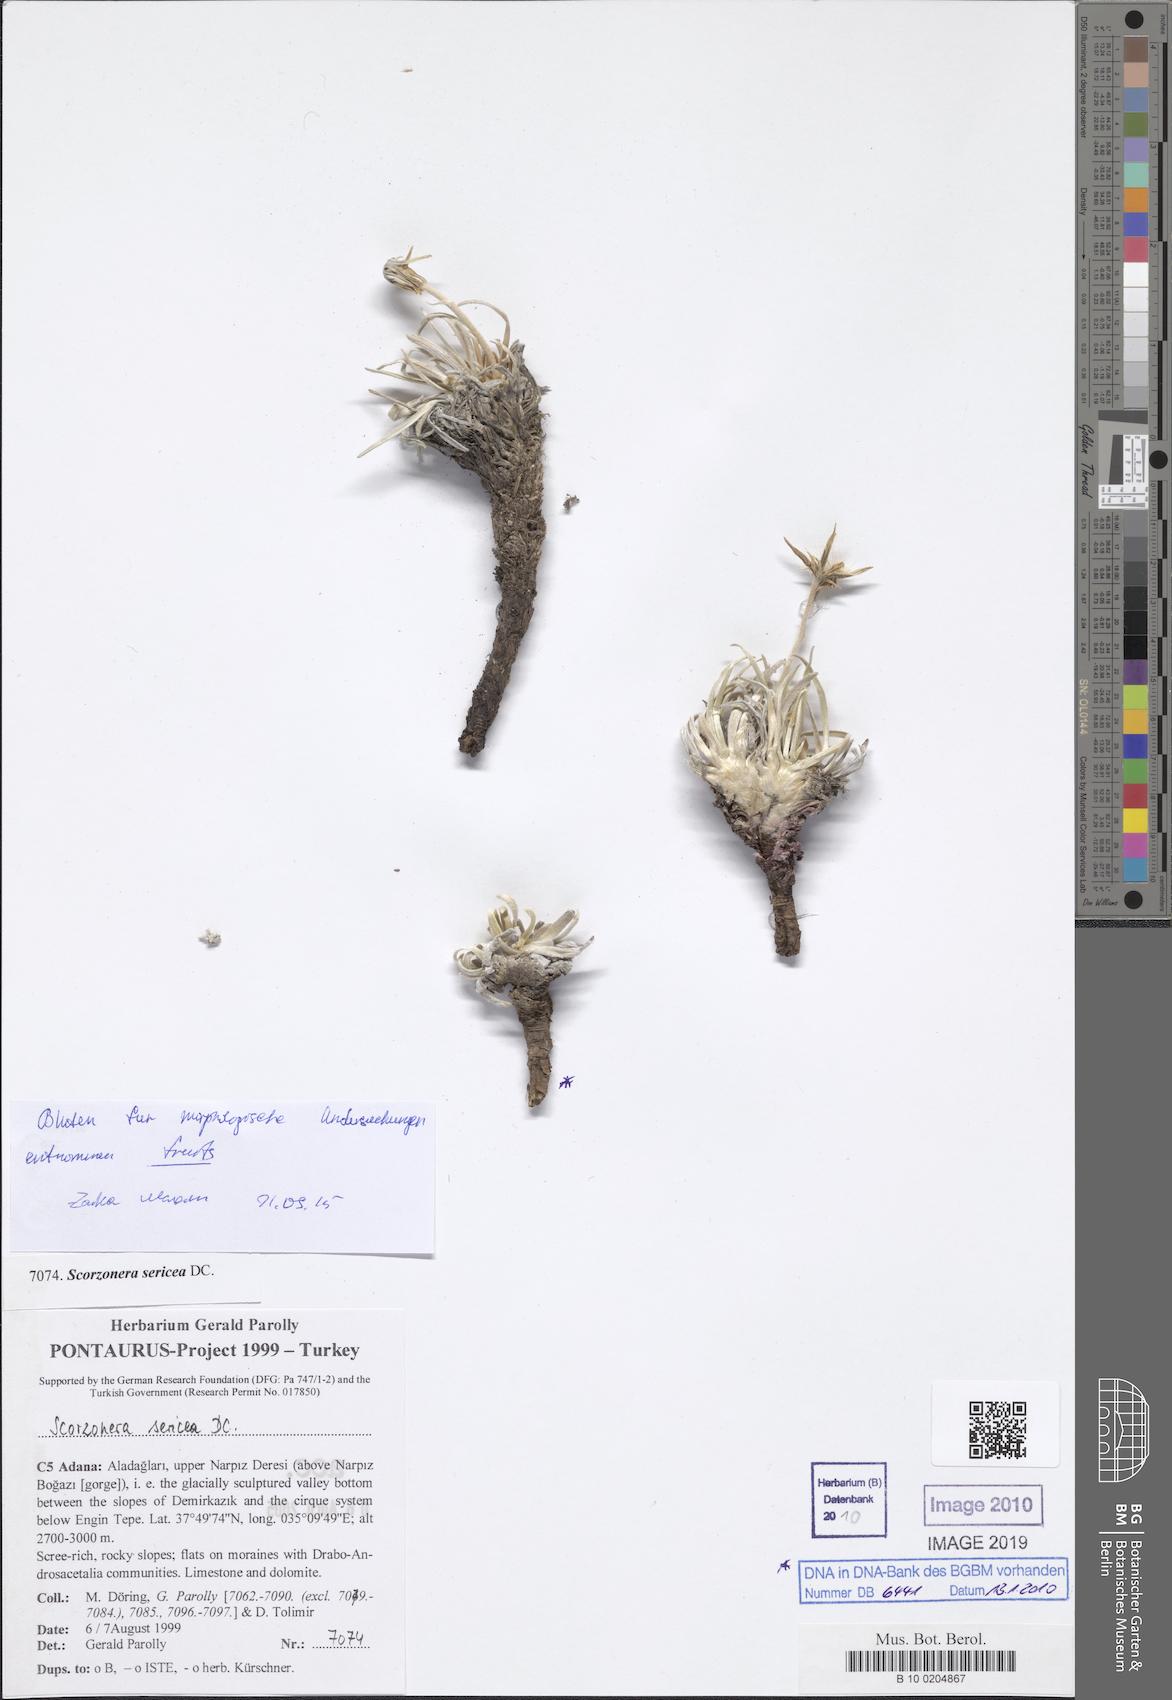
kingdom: Plantae
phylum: Tracheophyta
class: Magnoliopsida
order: Asterales
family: Asteraceae
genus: Goekyighitia
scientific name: Goekyighitia sericea
